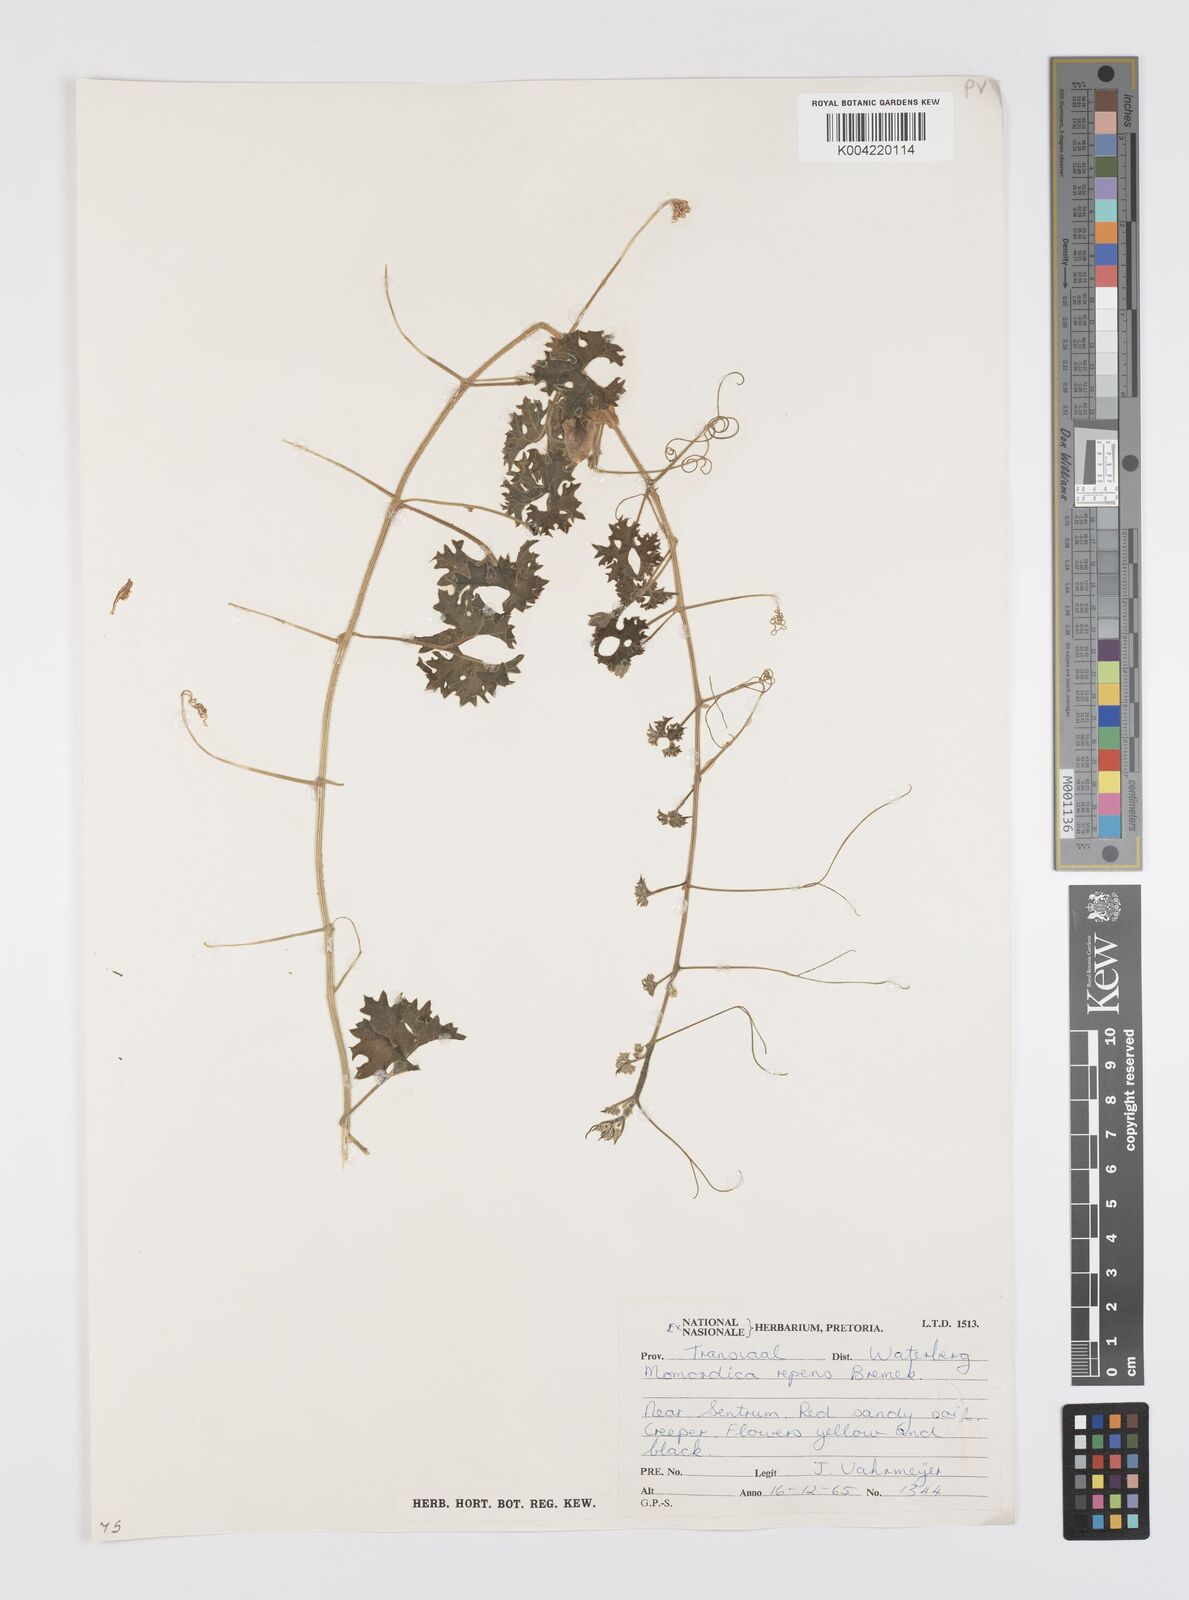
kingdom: Plantae
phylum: Tracheophyta
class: Magnoliopsida
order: Cucurbitales
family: Cucurbitaceae
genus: Momordica
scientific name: Momordica repens
